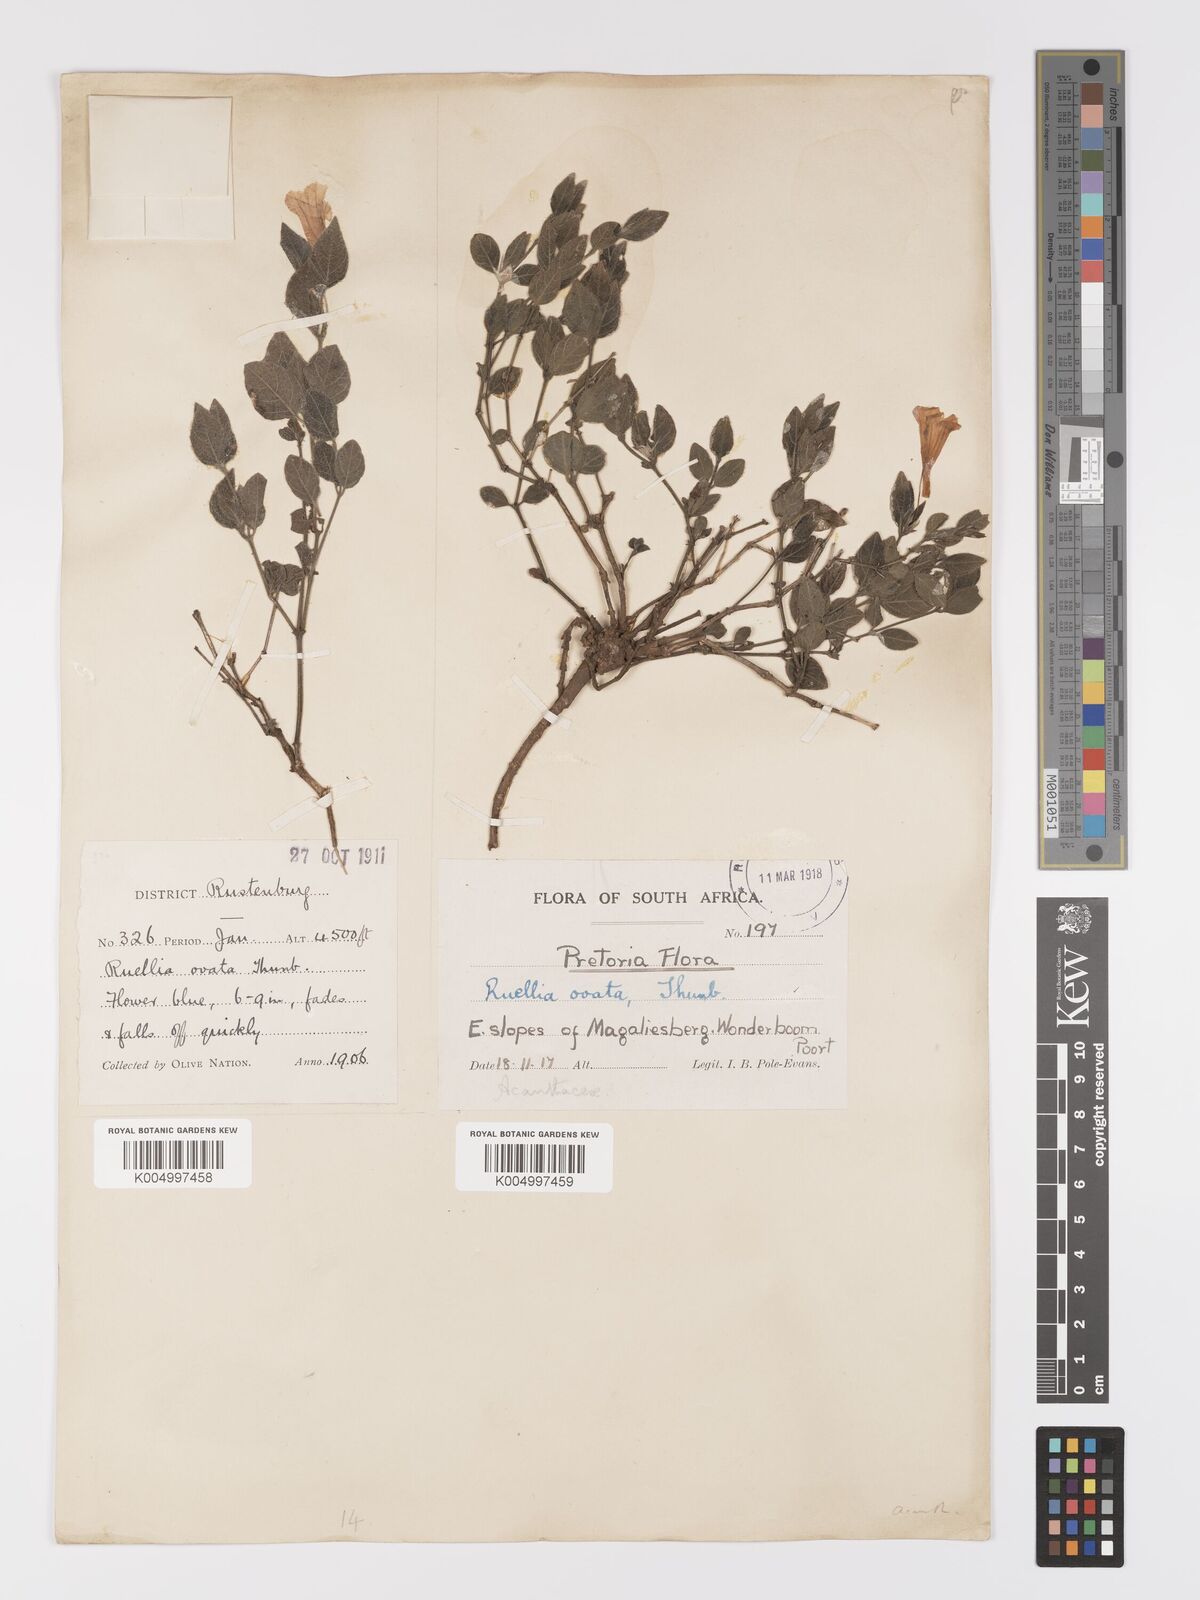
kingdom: Plantae
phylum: Tracheophyta
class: Magnoliopsida
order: Lamiales
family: Acanthaceae
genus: Ruellia
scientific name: Ruellia cordata
